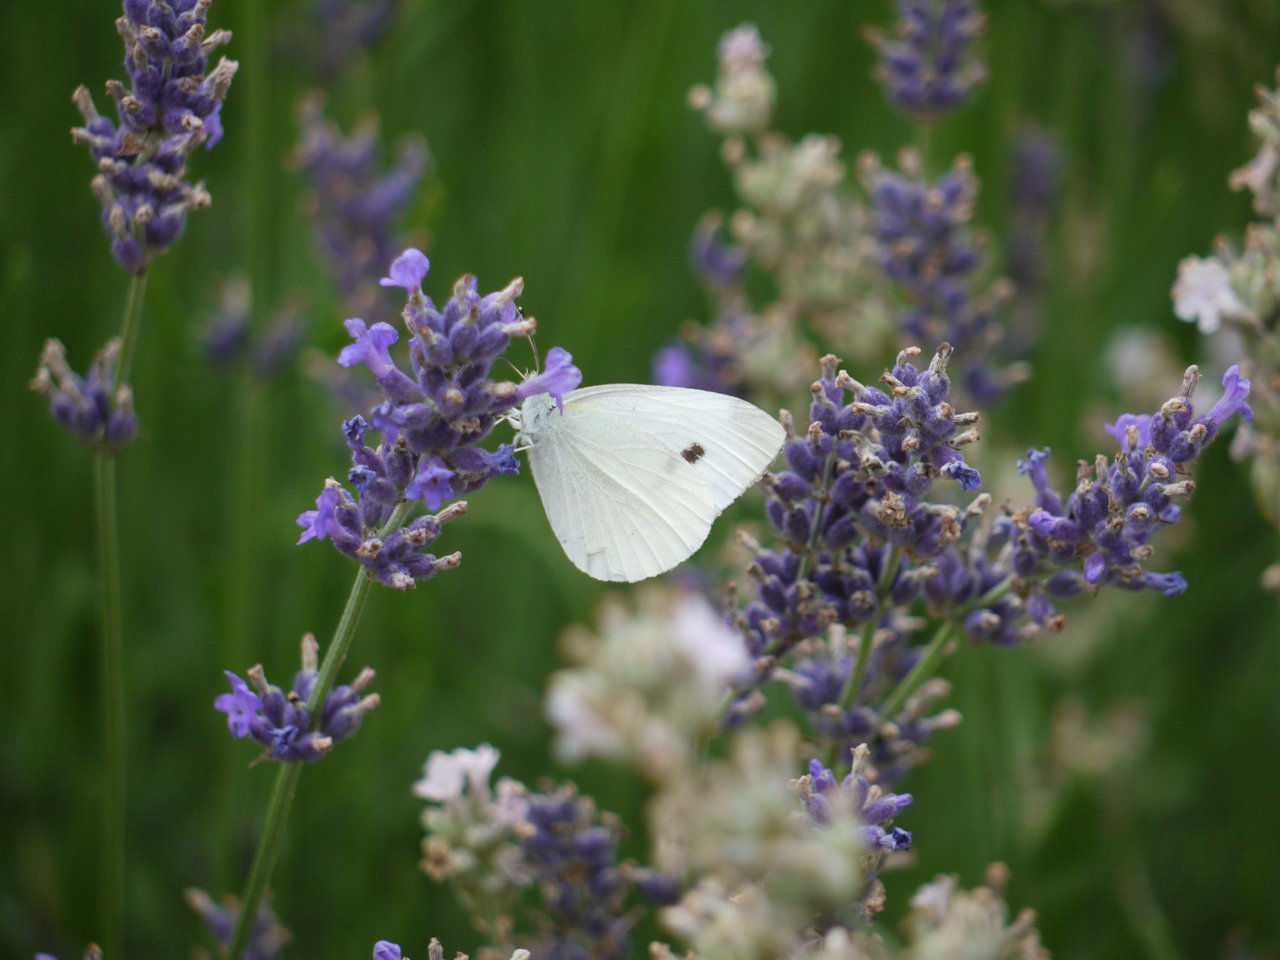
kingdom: Animalia
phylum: Arthropoda
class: Insecta
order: Lepidoptera
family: Pieridae
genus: Pieris
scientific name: Pieris rapae
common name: Cabbage White
